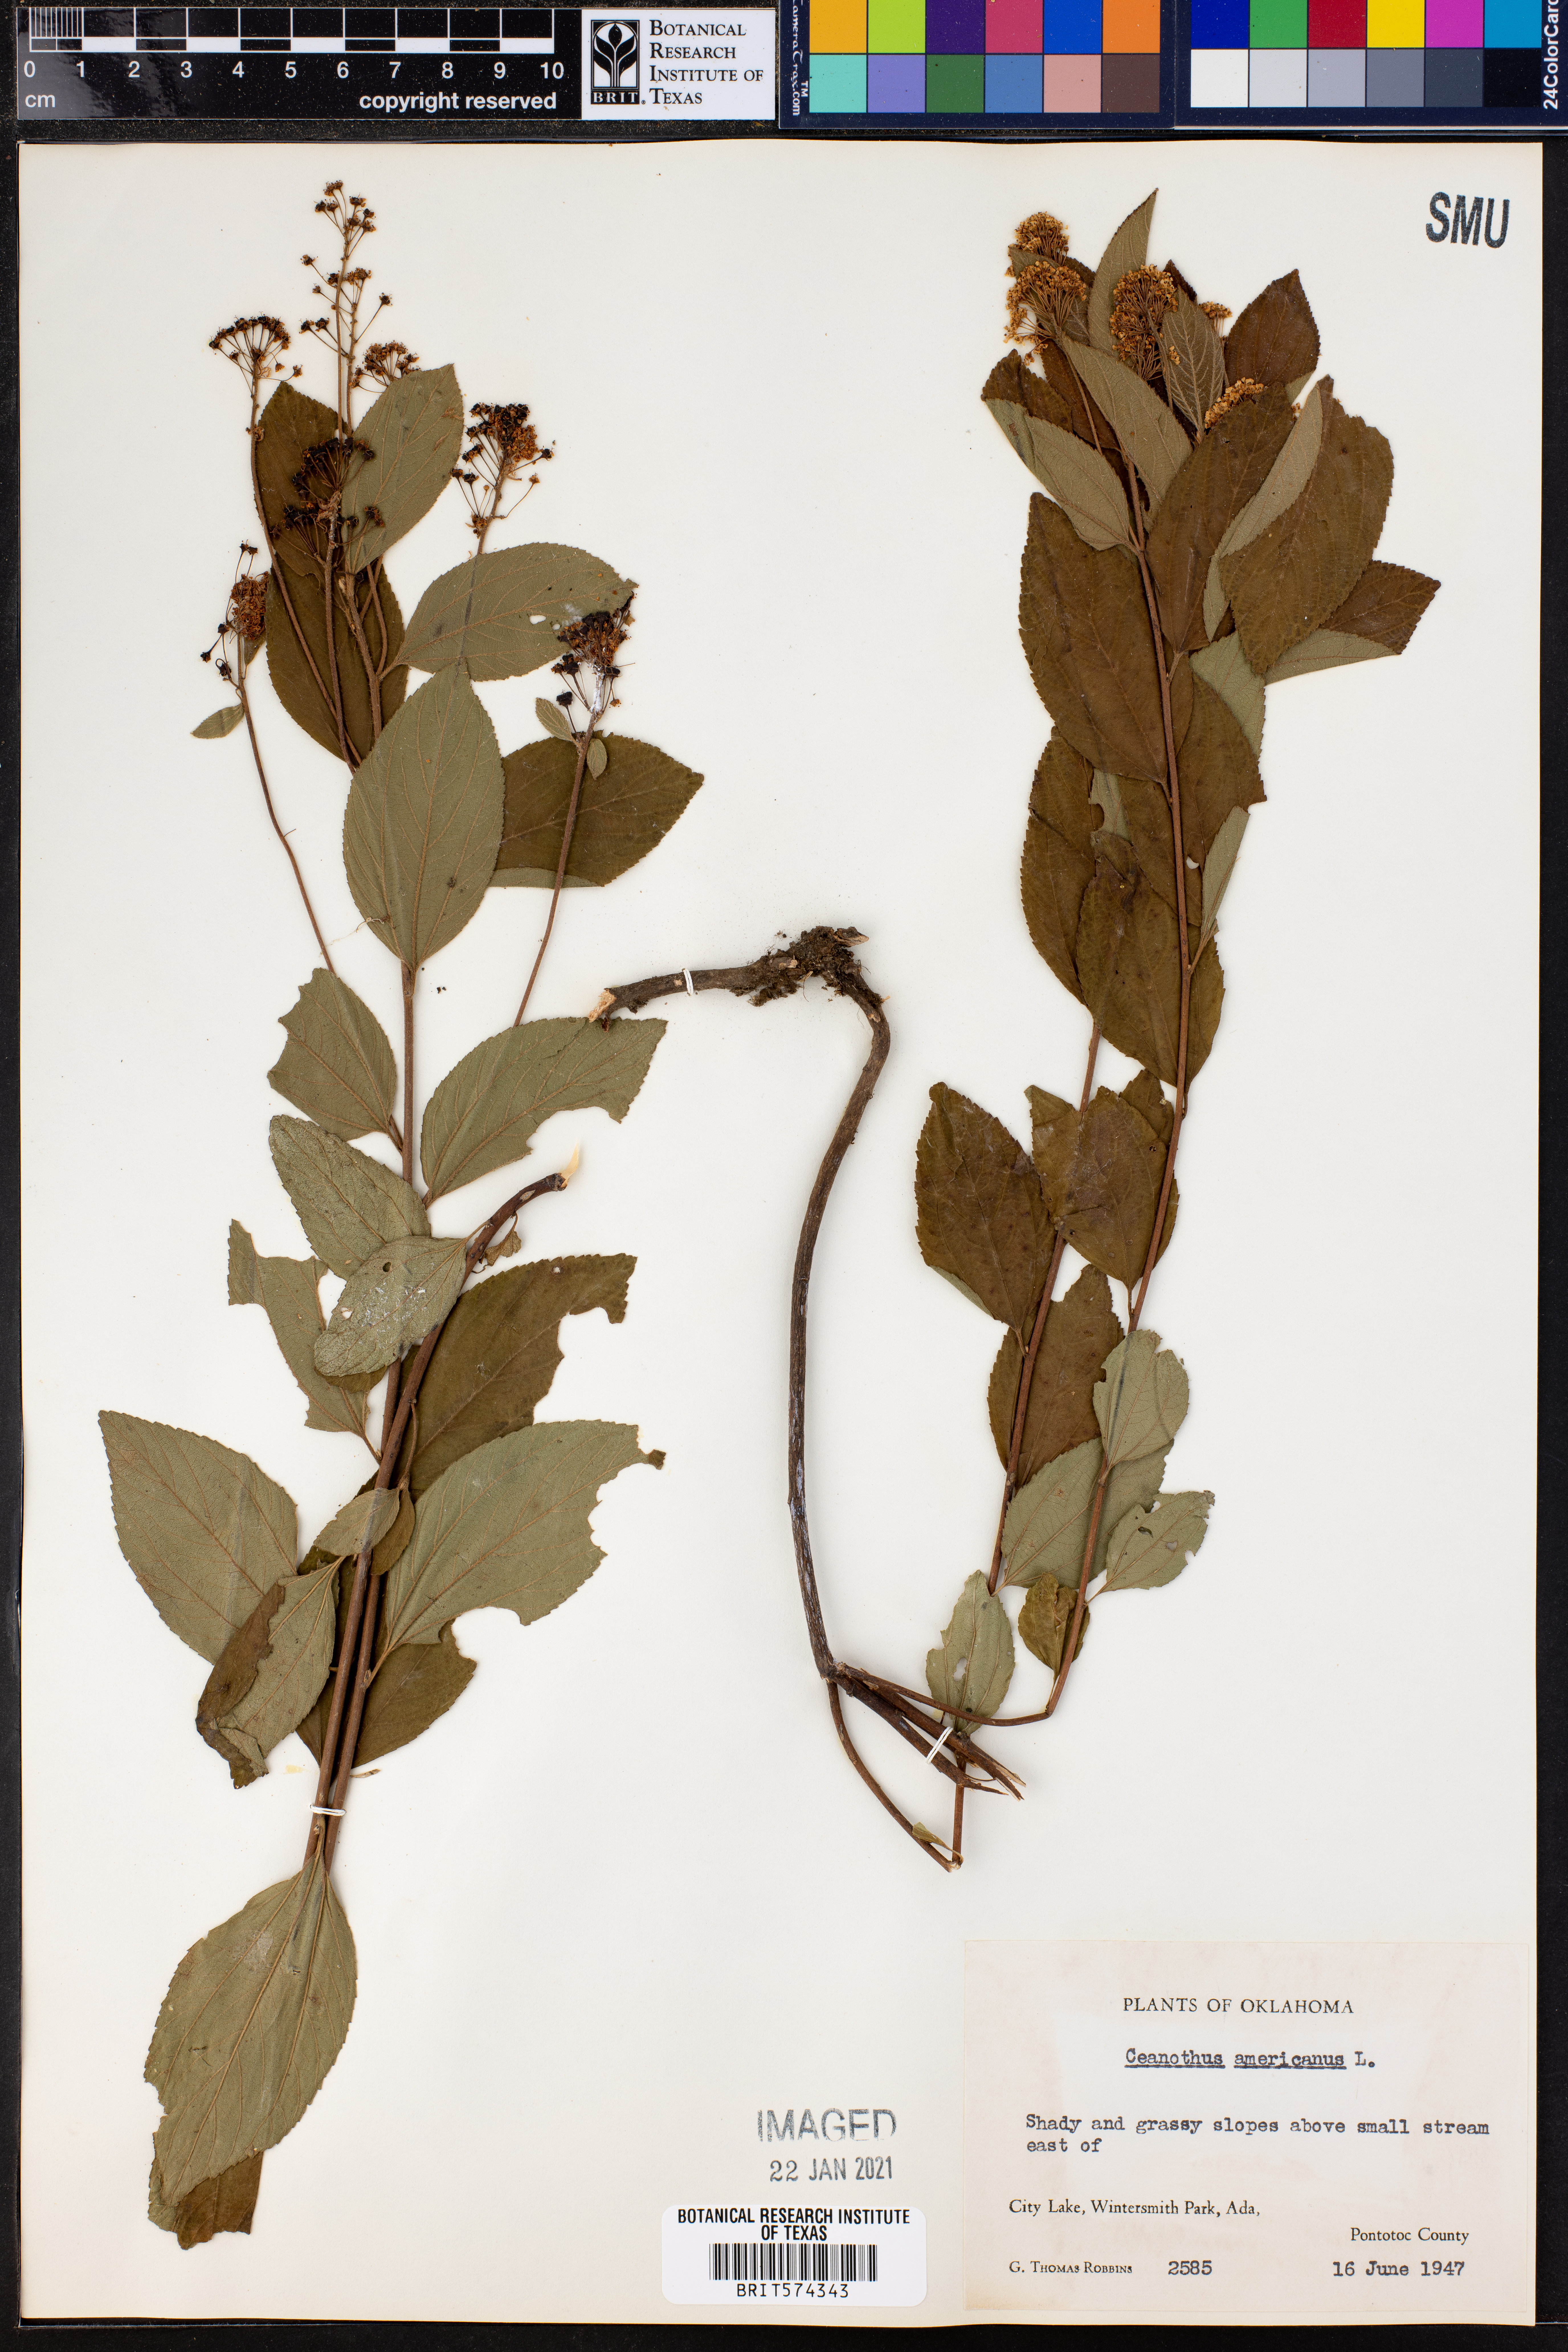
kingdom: Plantae
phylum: Tracheophyta
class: Magnoliopsida
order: Rosales
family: Rhamnaceae
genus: Ceanothus
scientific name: Ceanothus americanus
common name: Redroot
